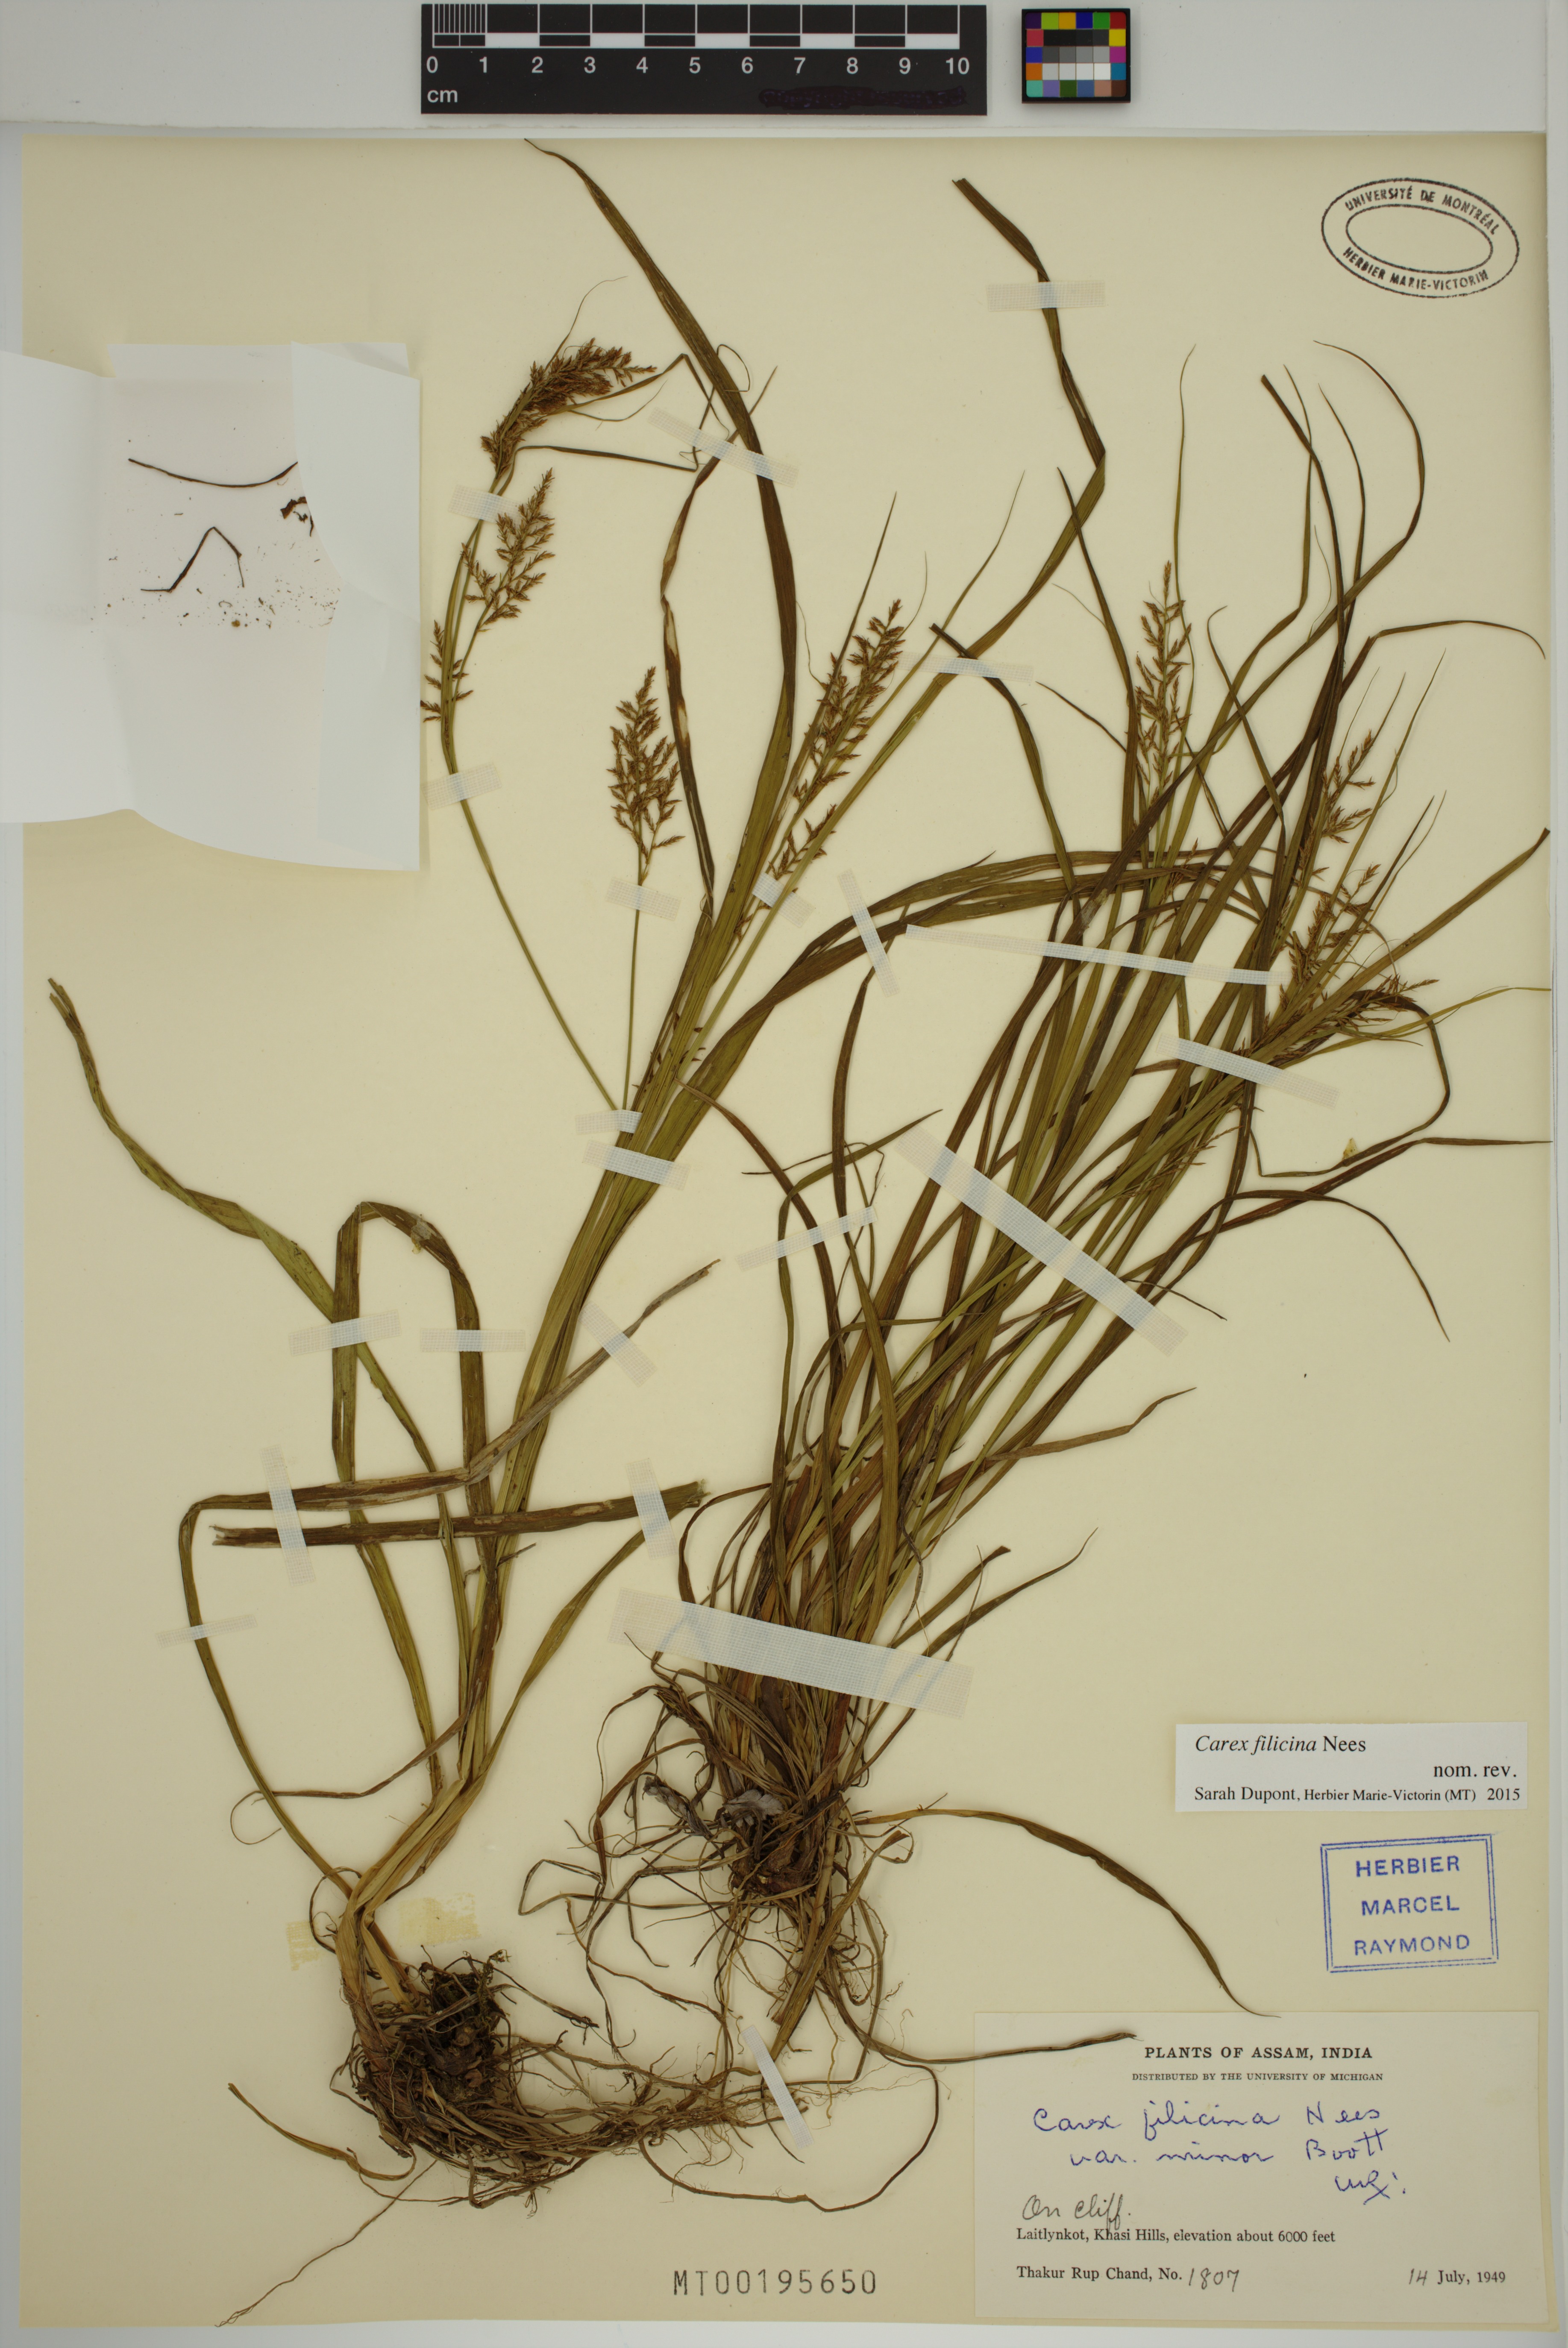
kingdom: Plantae
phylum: Tracheophyta
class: Liliopsida
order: Poales
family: Cyperaceae
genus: Carex
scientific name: Carex filicina
